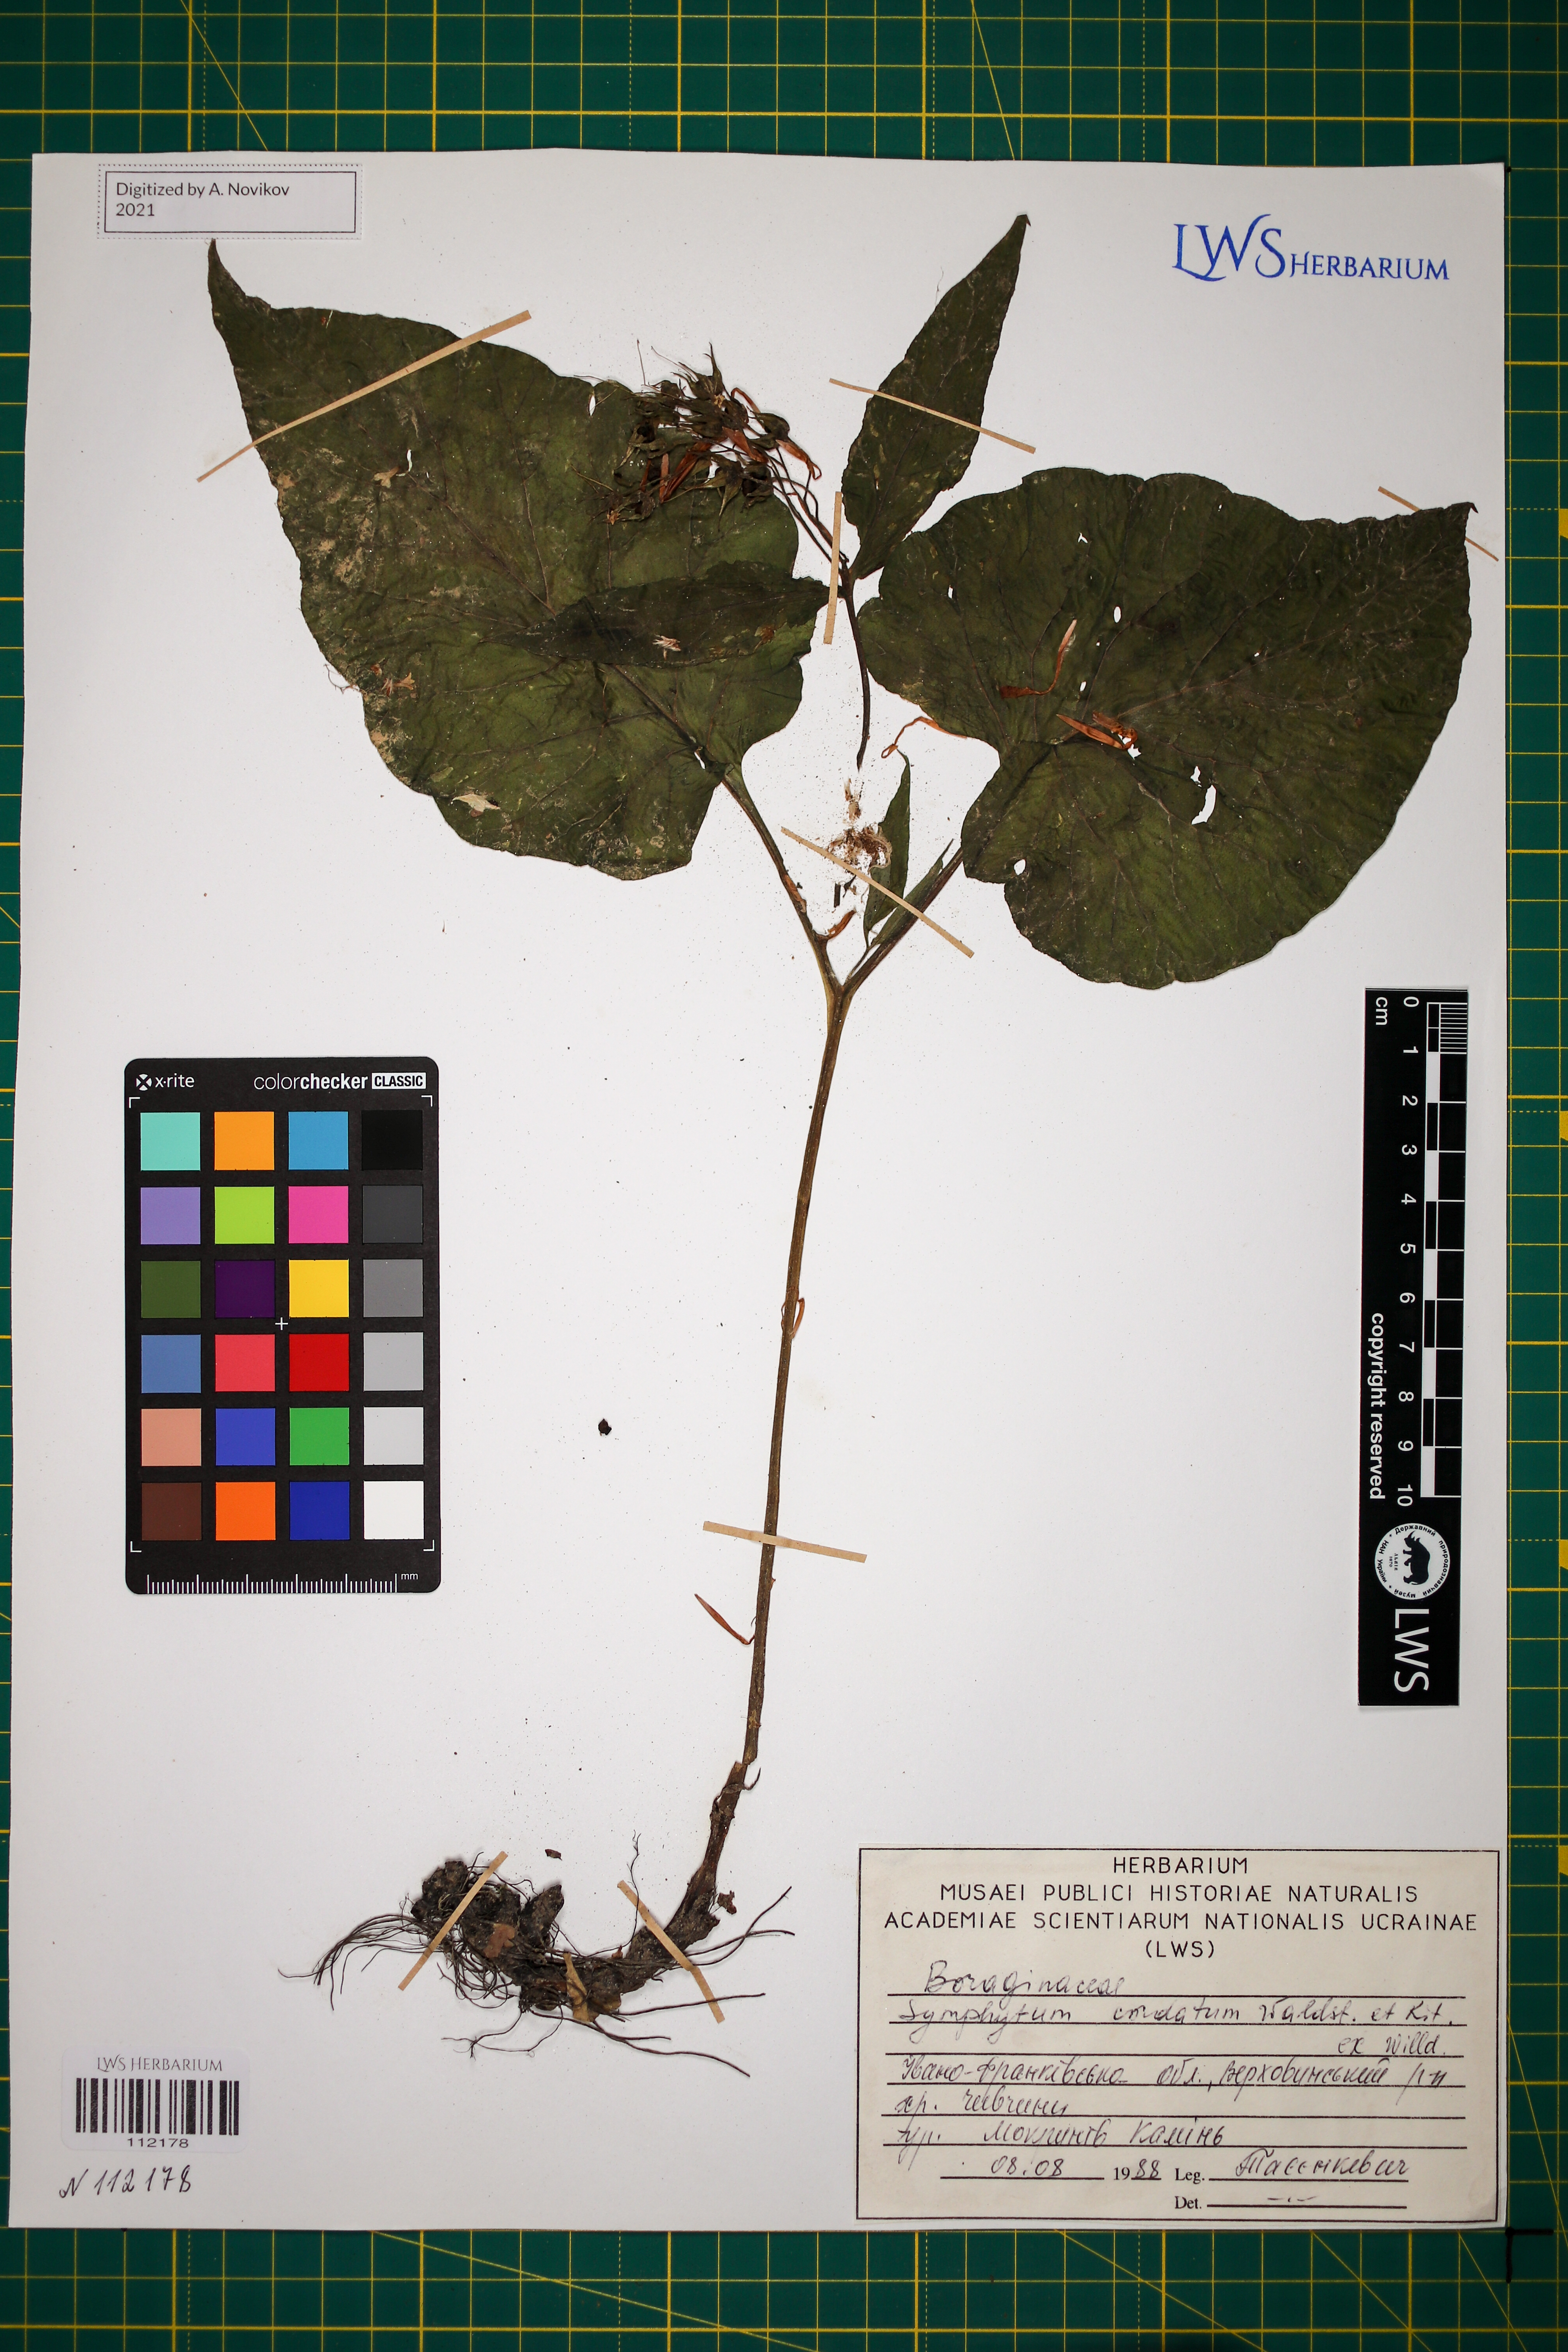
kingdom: Plantae
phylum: Tracheophyta
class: Magnoliopsida
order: Boraginales
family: Boraginaceae
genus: Symphytum
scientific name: Symphytum cordatum
